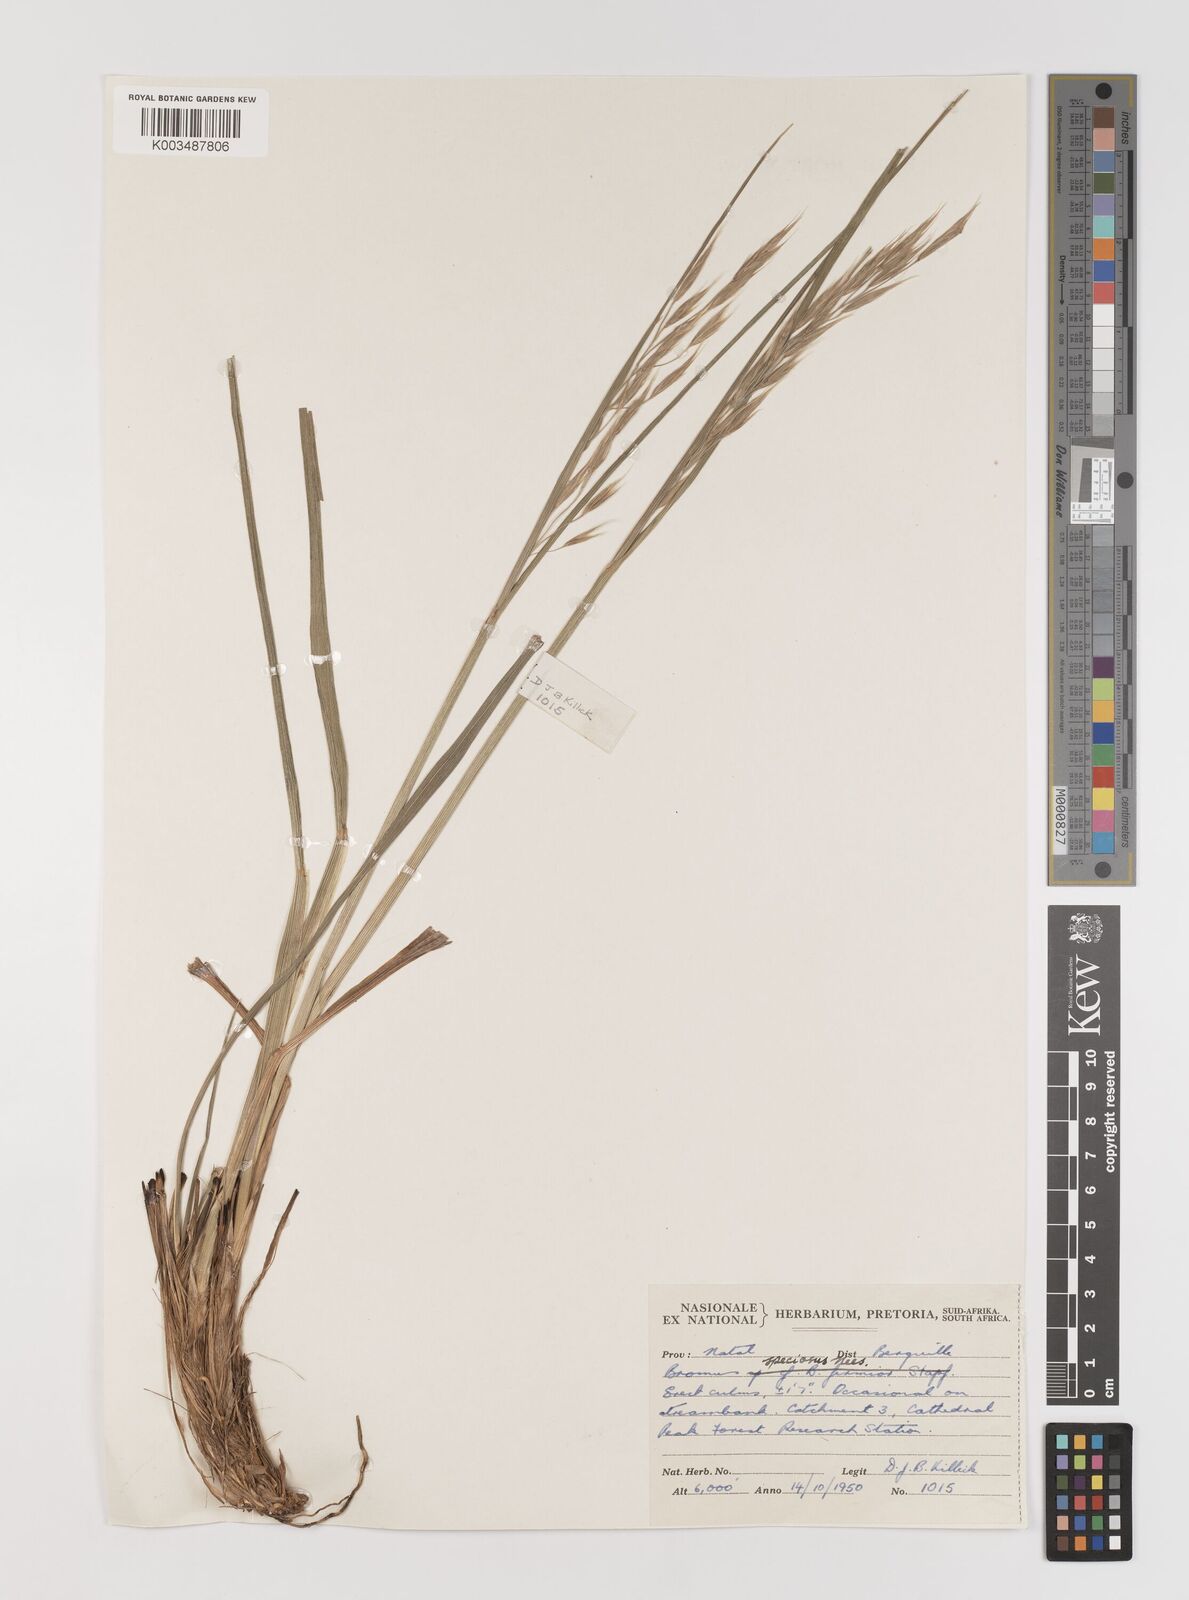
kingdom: Plantae
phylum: Tracheophyta
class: Liliopsida
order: Poales
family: Poaceae
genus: Bromus
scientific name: Bromus speciosus
